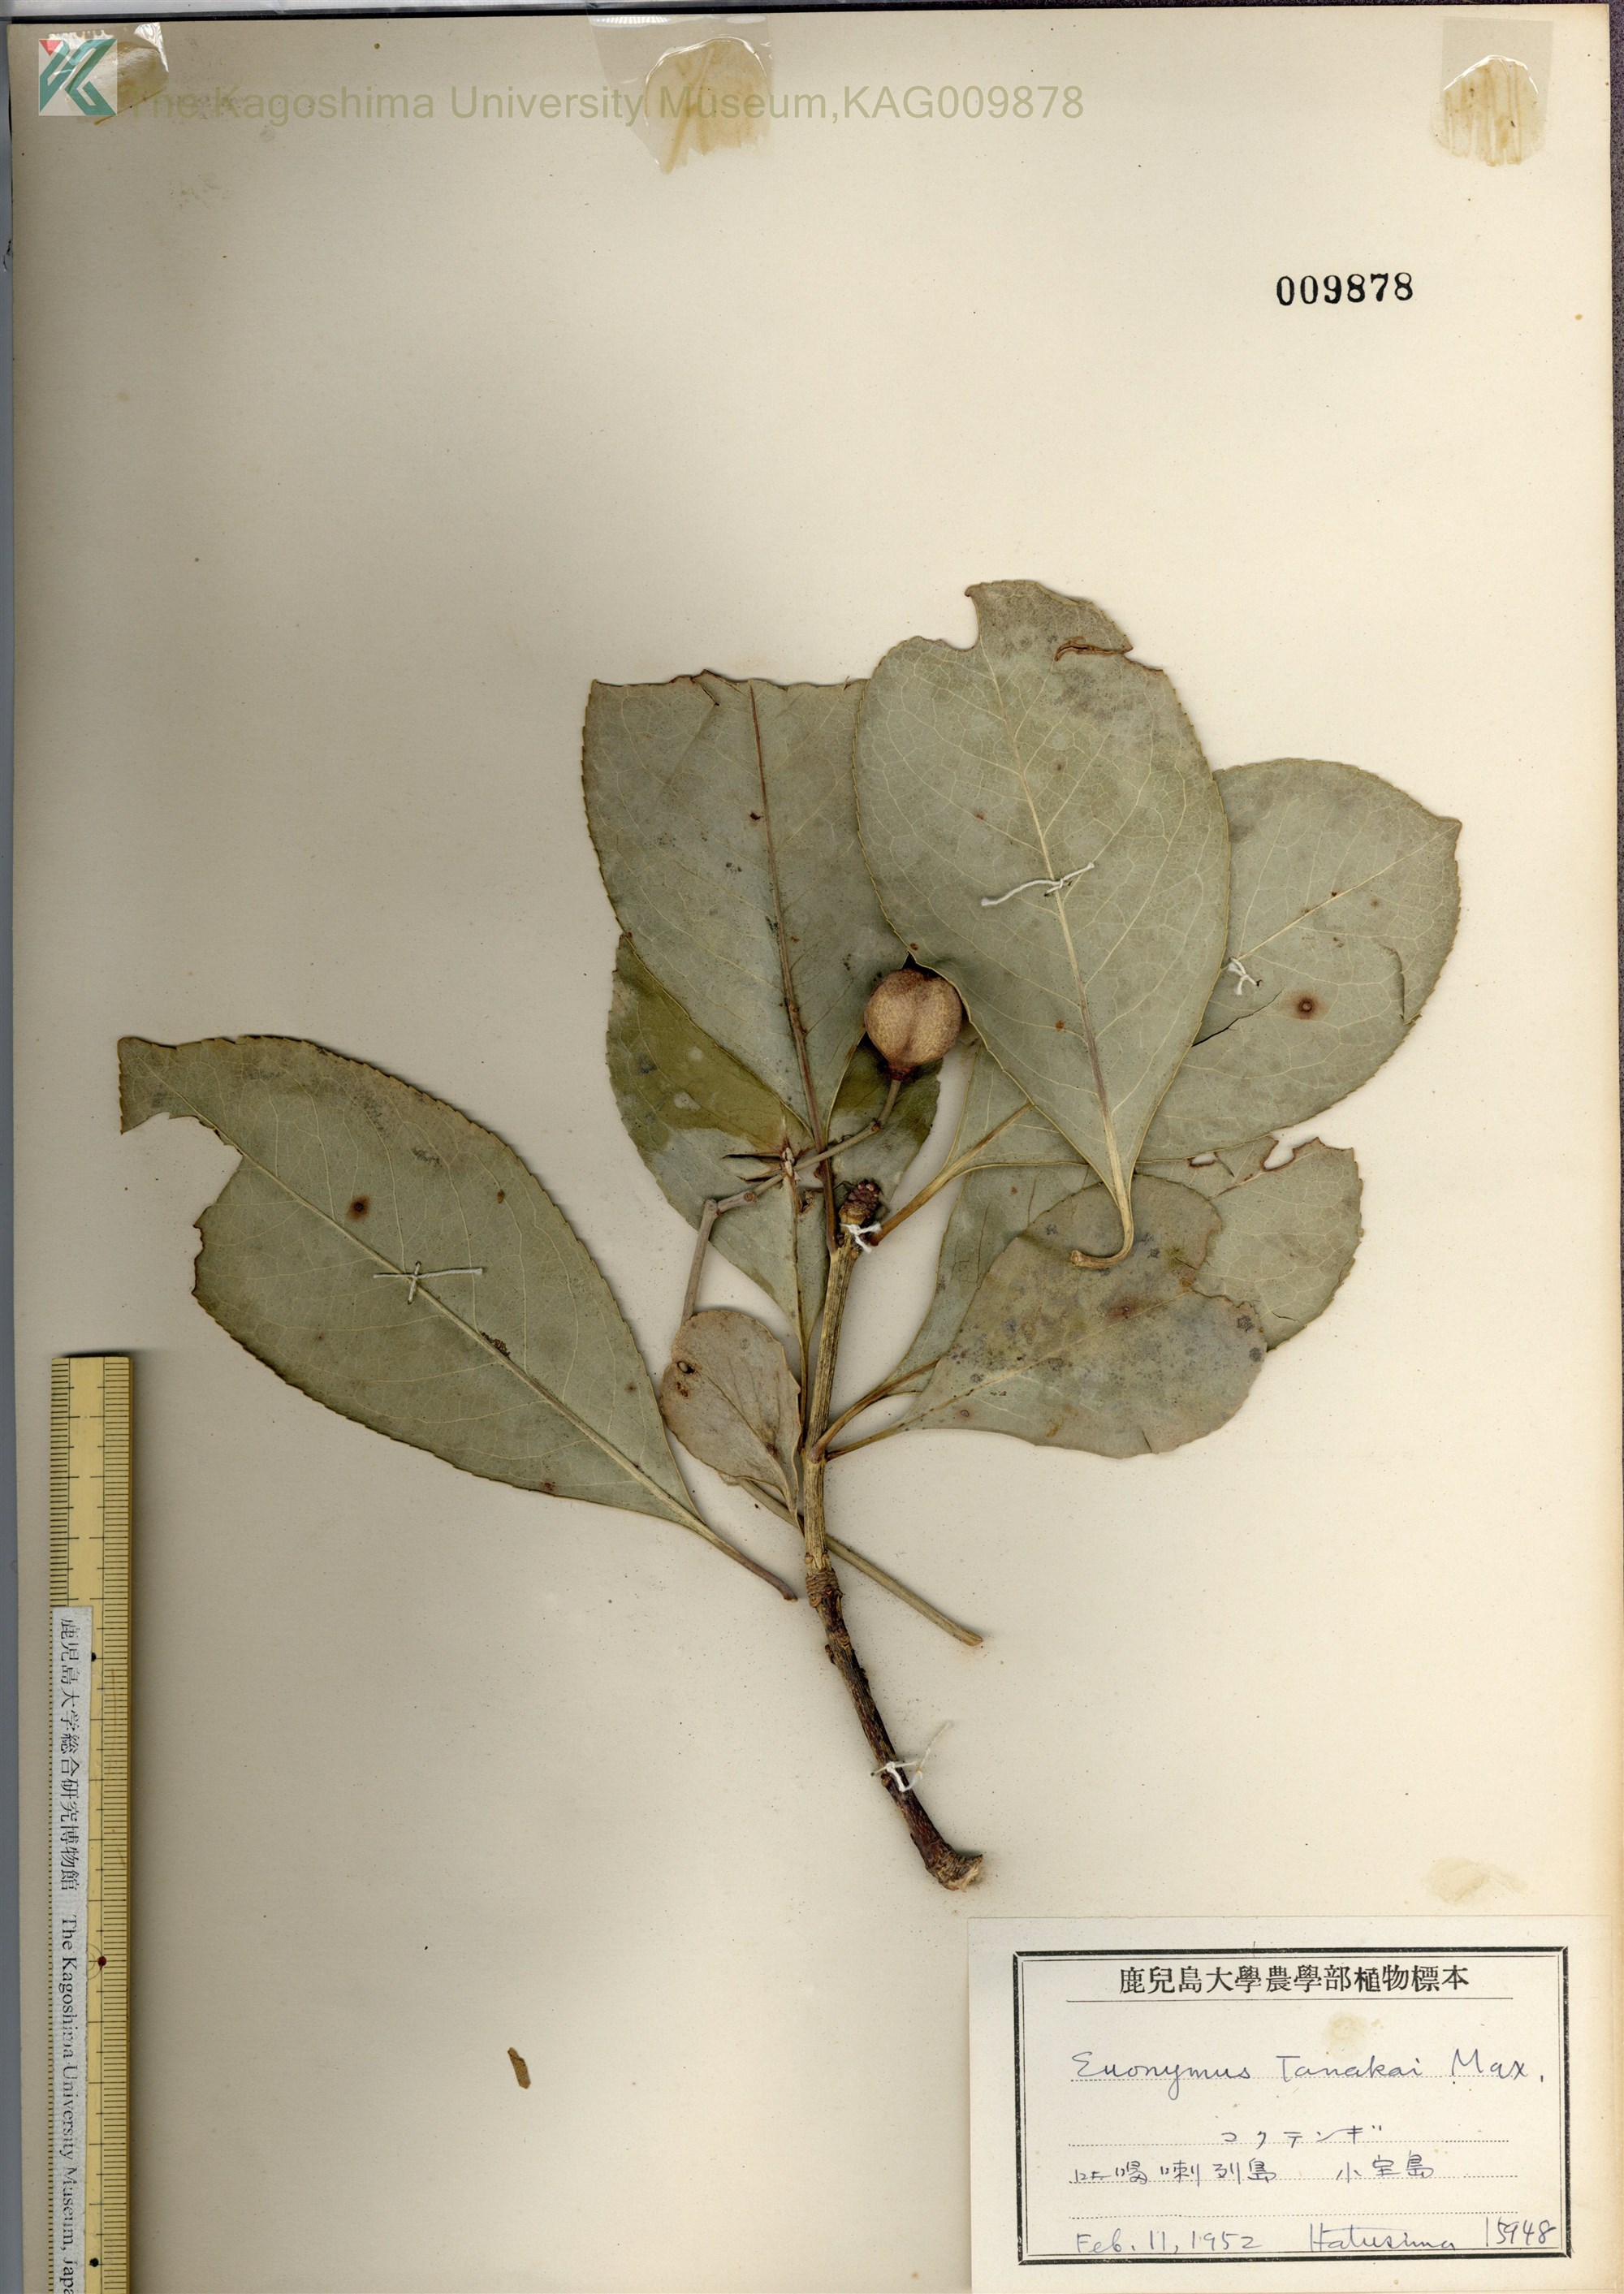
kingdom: Plantae
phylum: Tracheophyta
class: Magnoliopsida
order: Celastrales
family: Celastraceae
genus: Euonymus
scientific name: Euonymus carnosus
